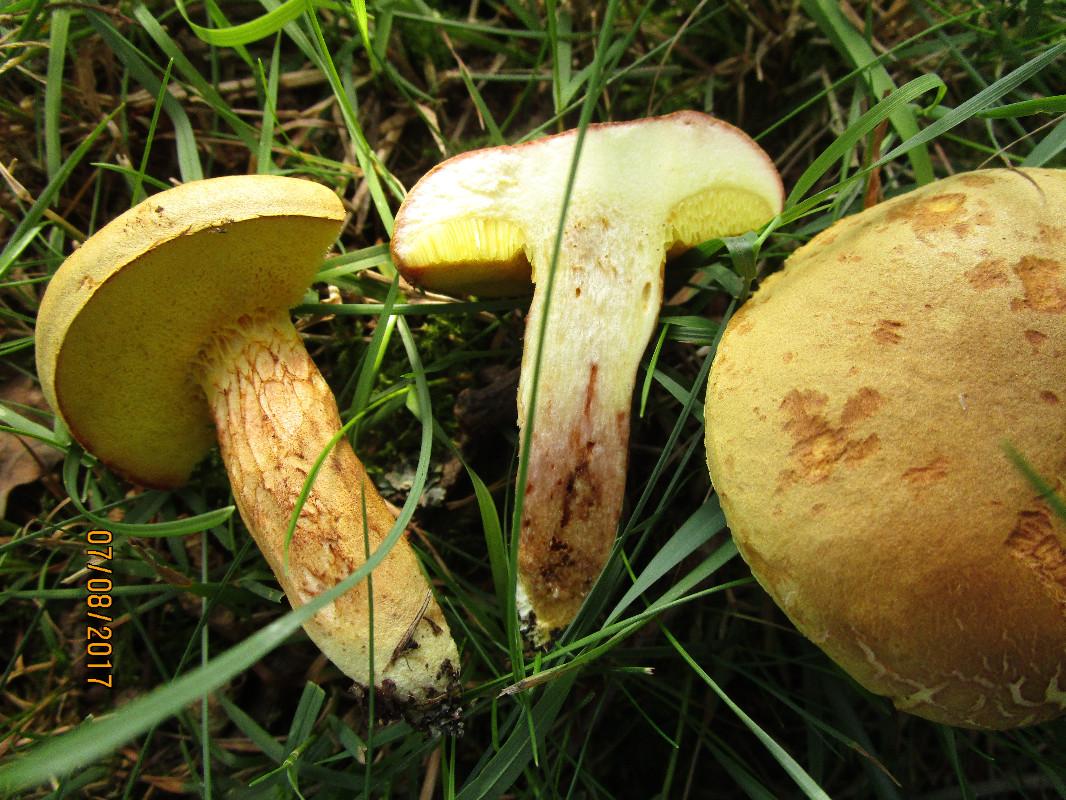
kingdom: Fungi
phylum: Basidiomycota
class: Agaricomycetes
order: Boletales
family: Boletaceae
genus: Xerocomus
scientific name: Xerocomus subtomentosus
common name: filtet rørhat
